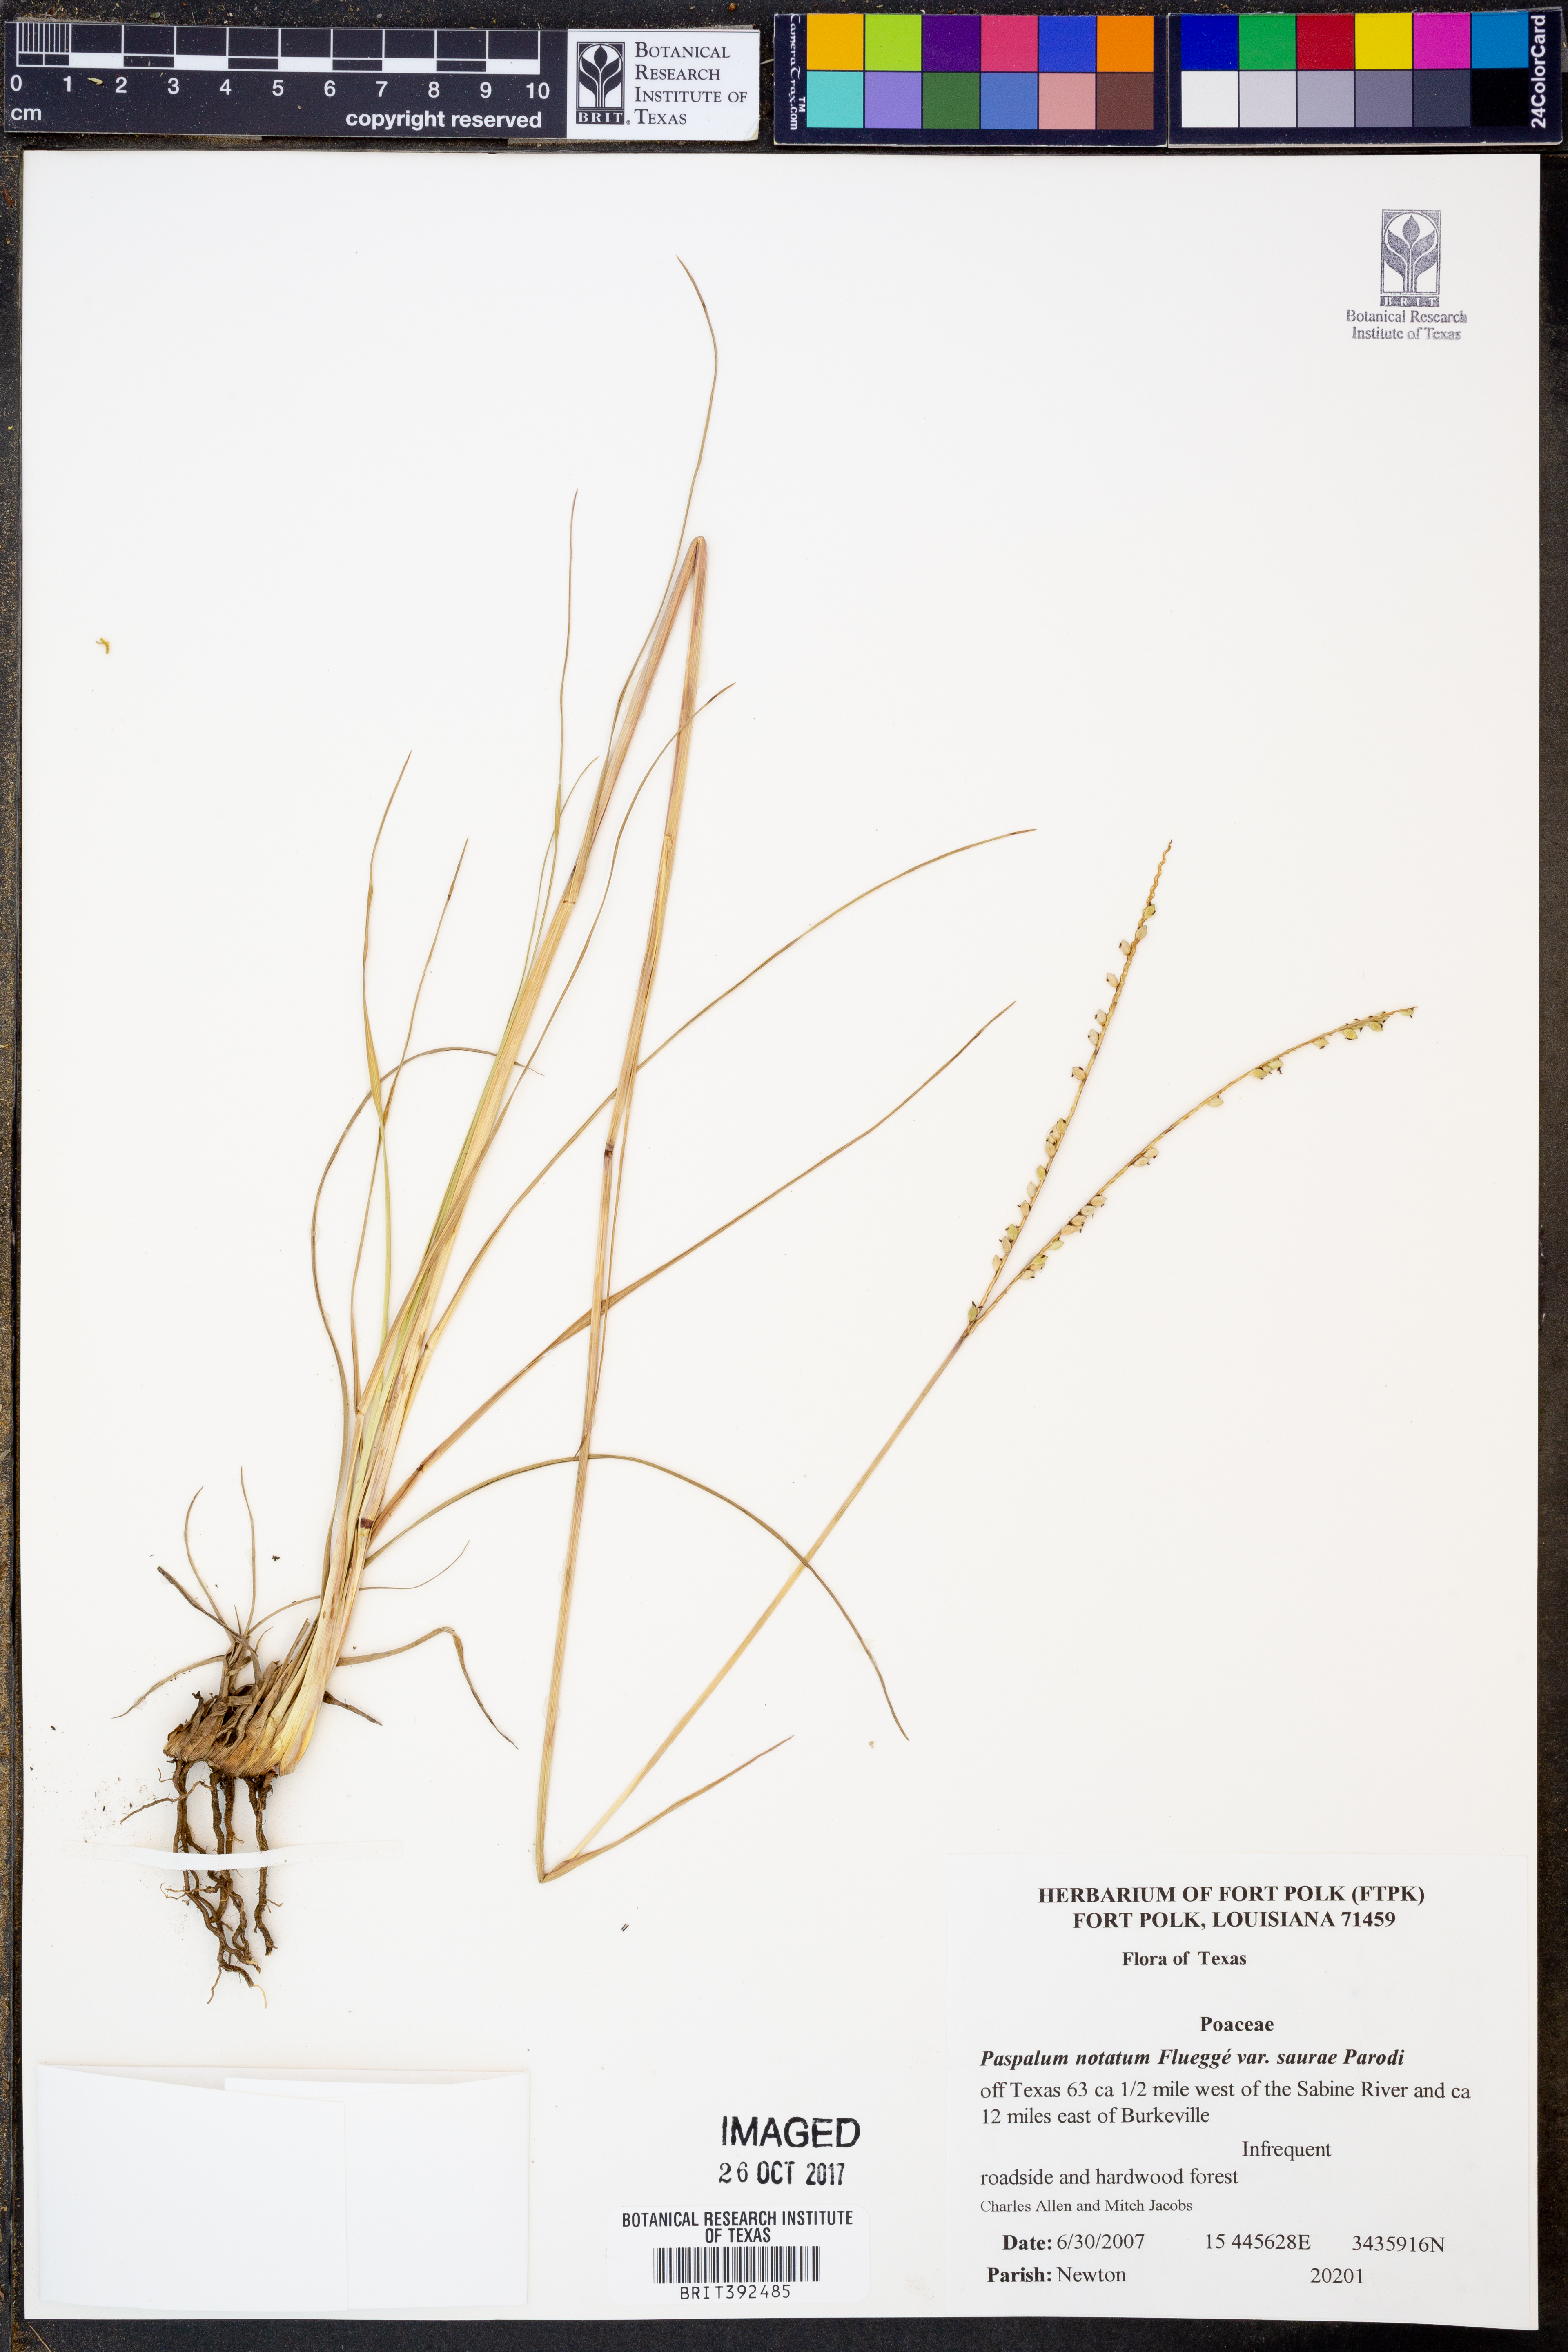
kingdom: Plantae
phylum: Tracheophyta
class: Liliopsida
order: Poales
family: Poaceae
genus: Paspalum
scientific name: Paspalum saurae
